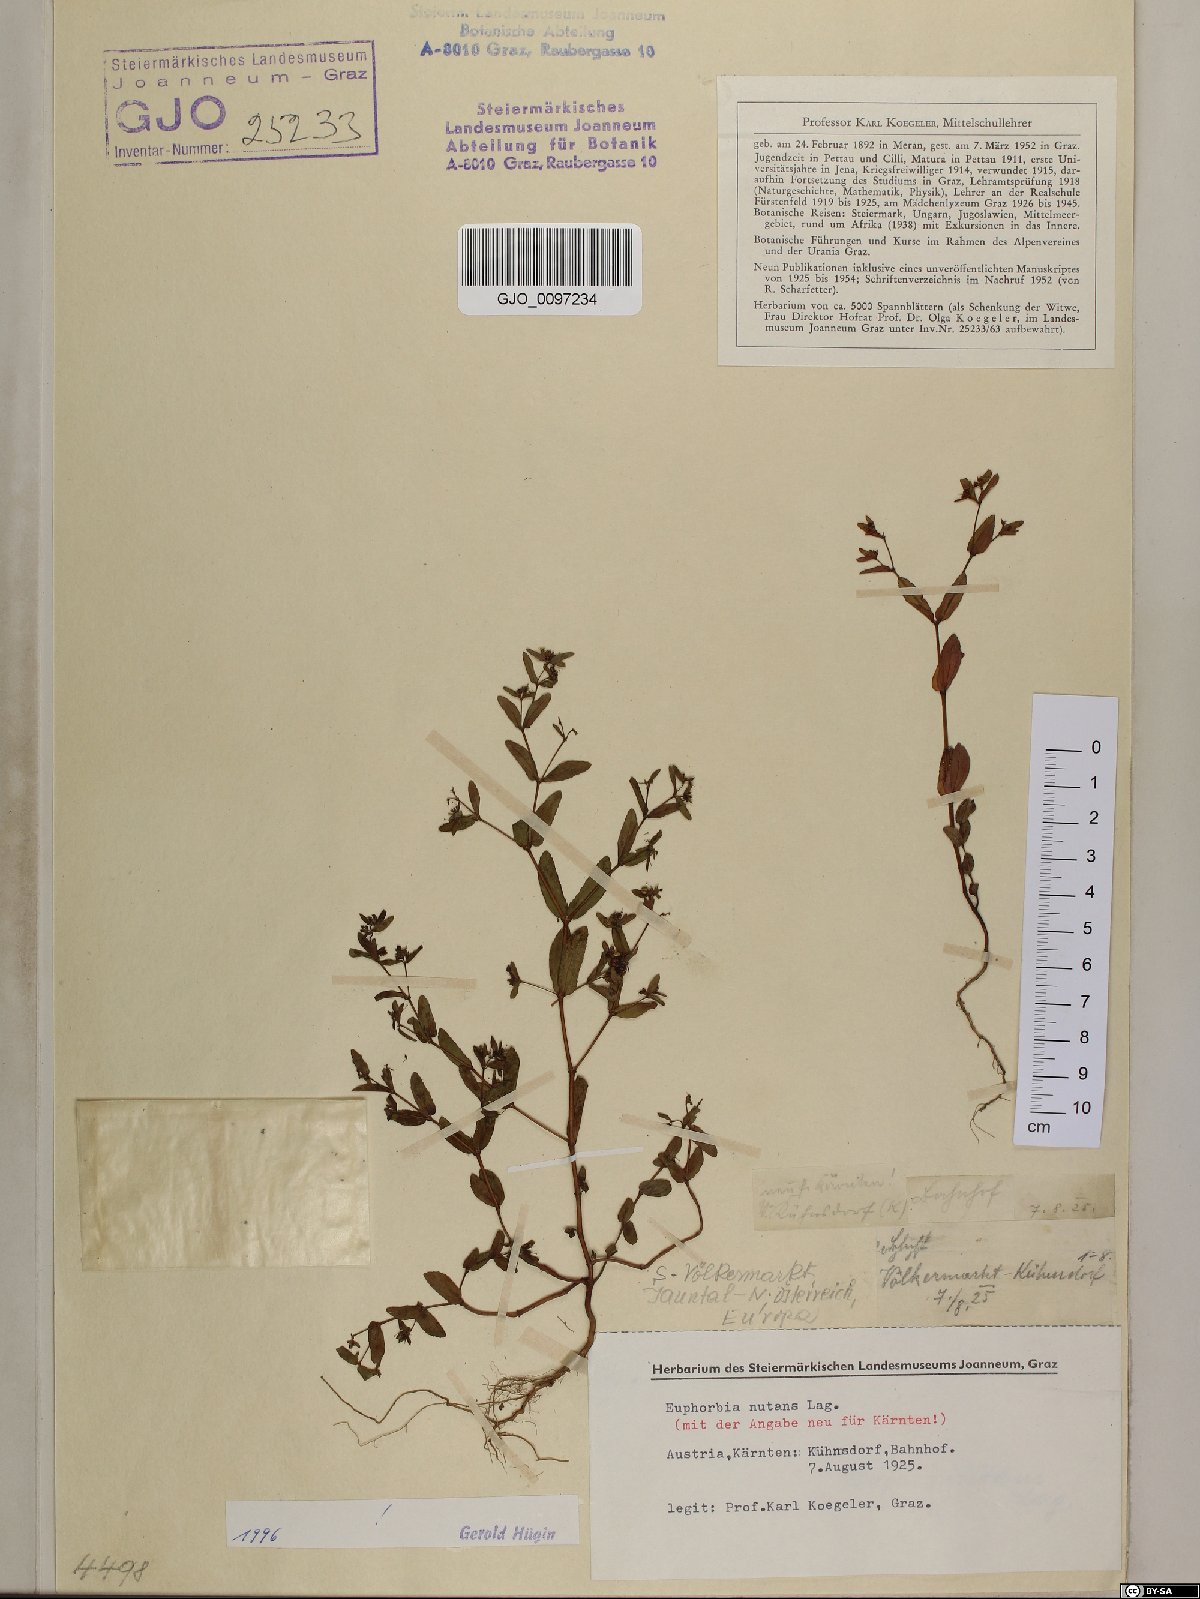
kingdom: Plantae
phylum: Tracheophyta
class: Magnoliopsida
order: Malpighiales
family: Euphorbiaceae
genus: Euphorbia
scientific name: Euphorbia nutans
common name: Eyebane
